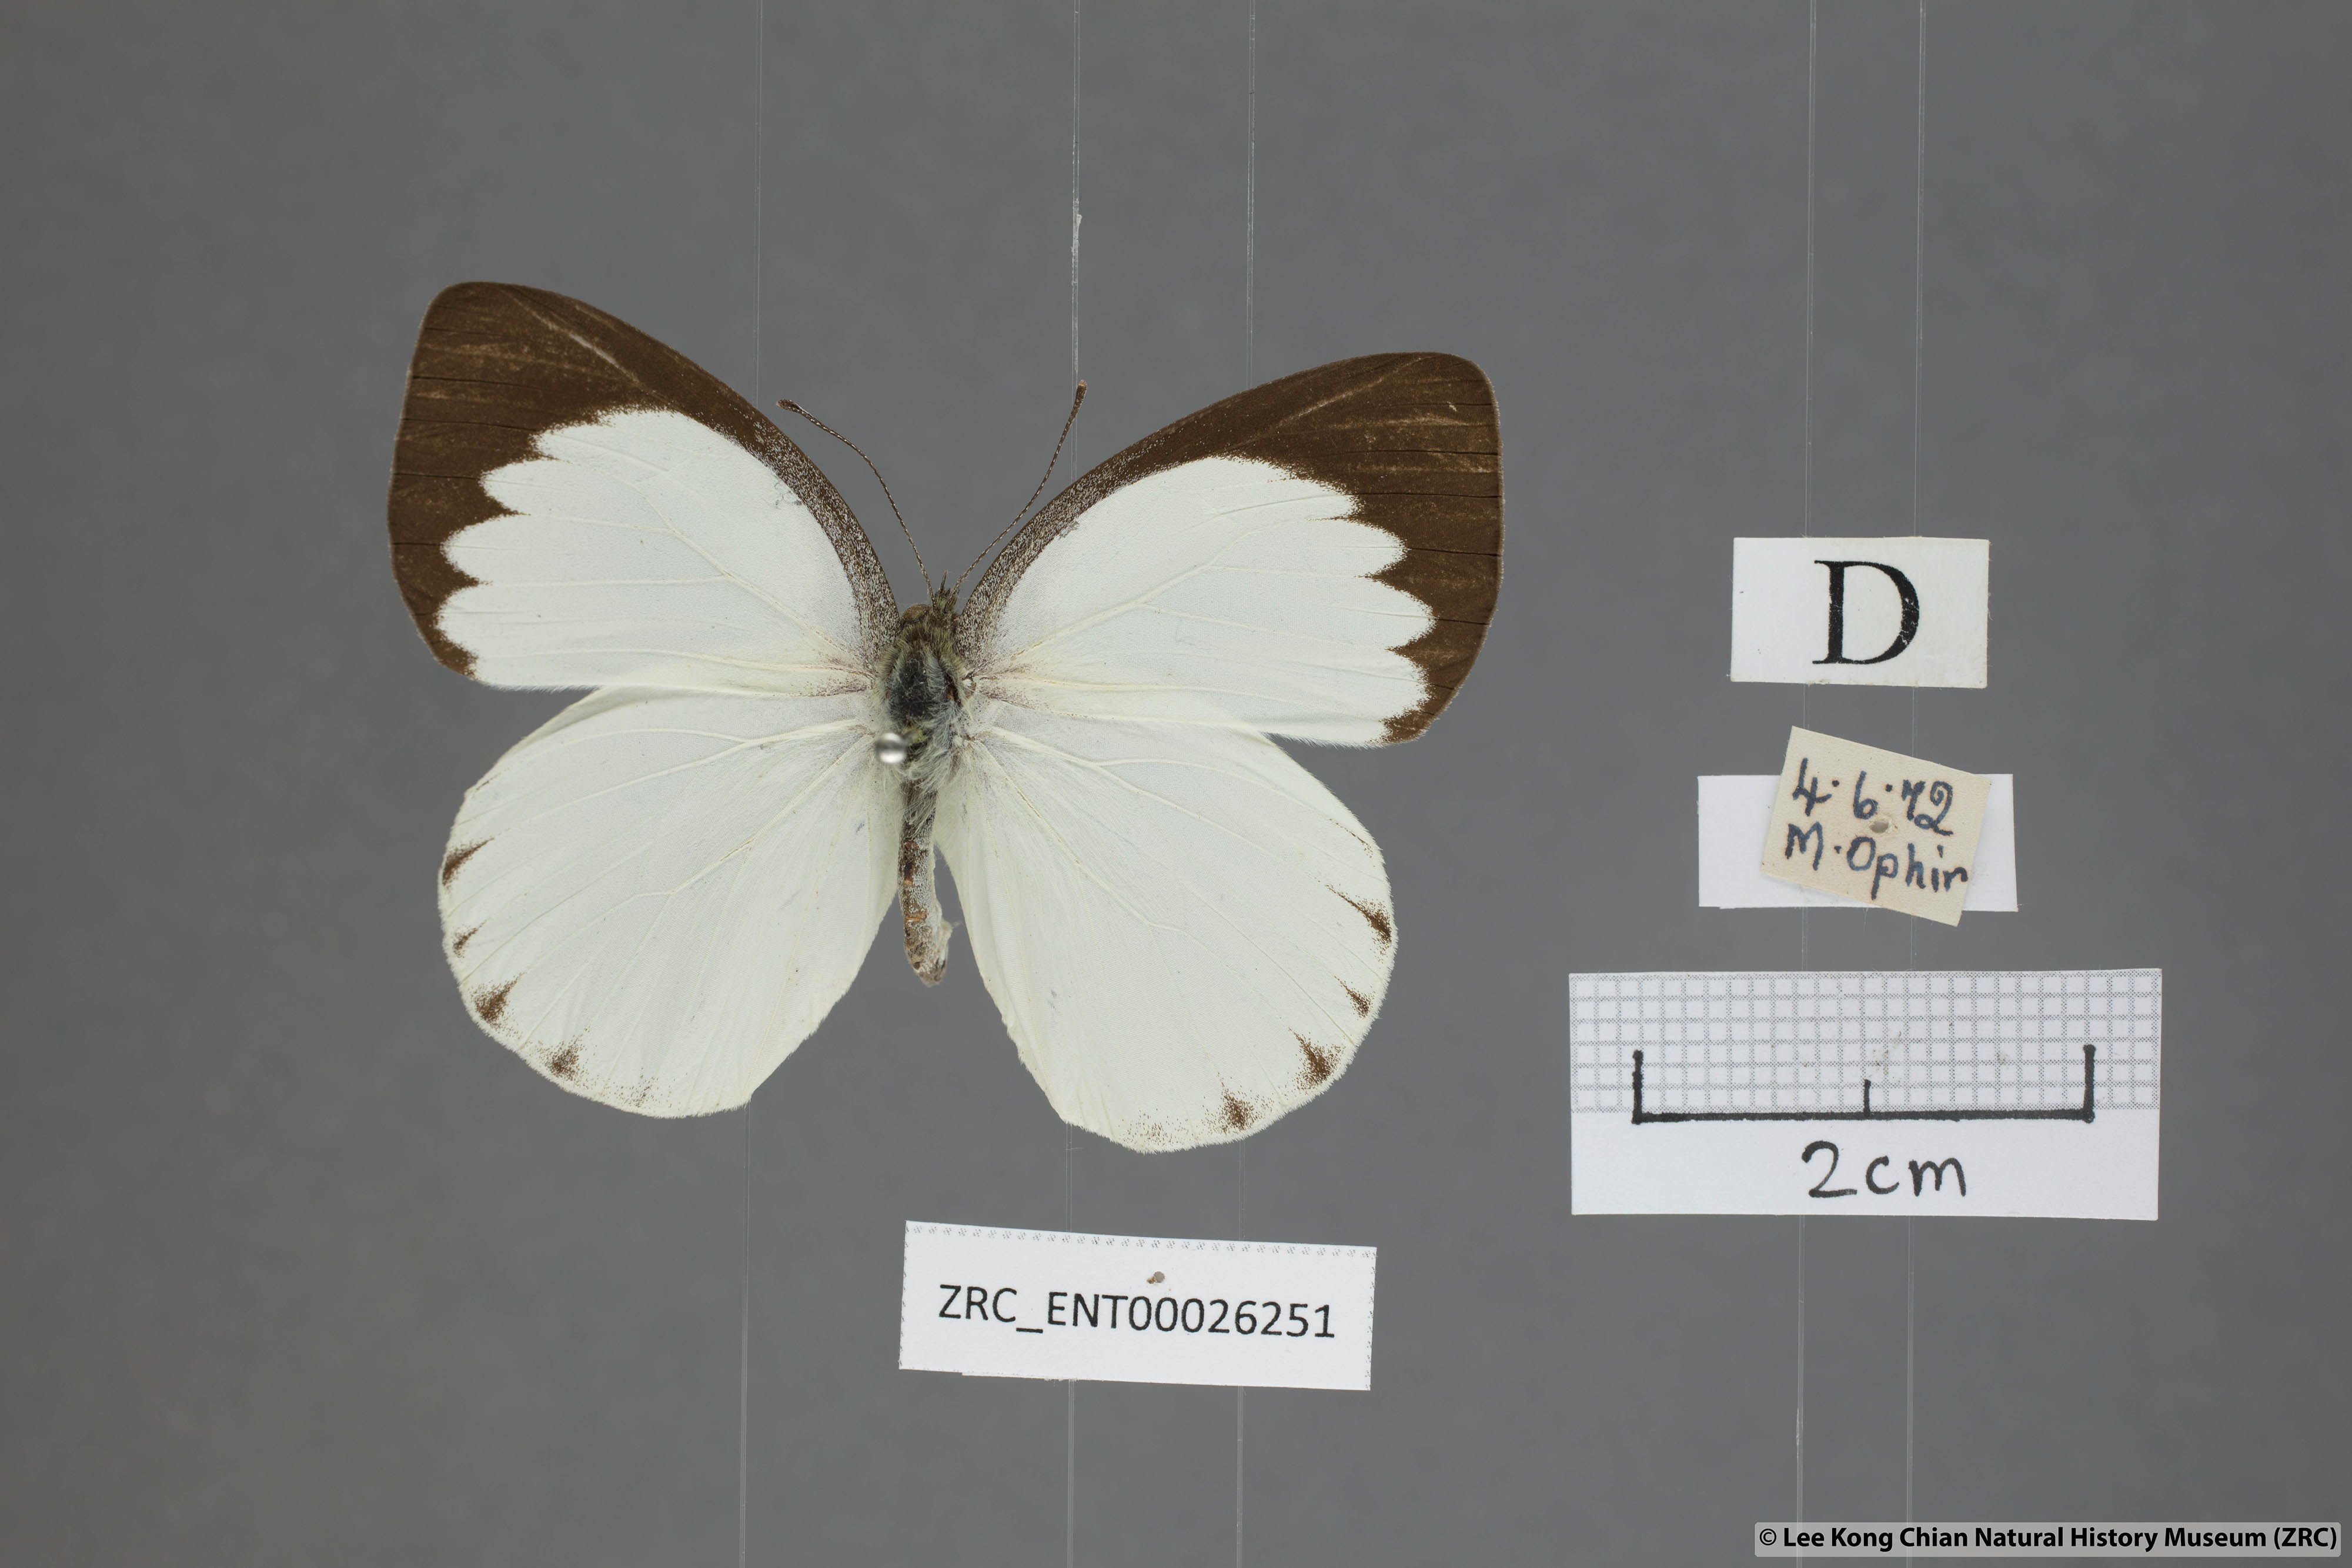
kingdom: Animalia
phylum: Arthropoda
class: Insecta
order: Lepidoptera
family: Pieridae
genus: Phrissura
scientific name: Phrissura aegis
